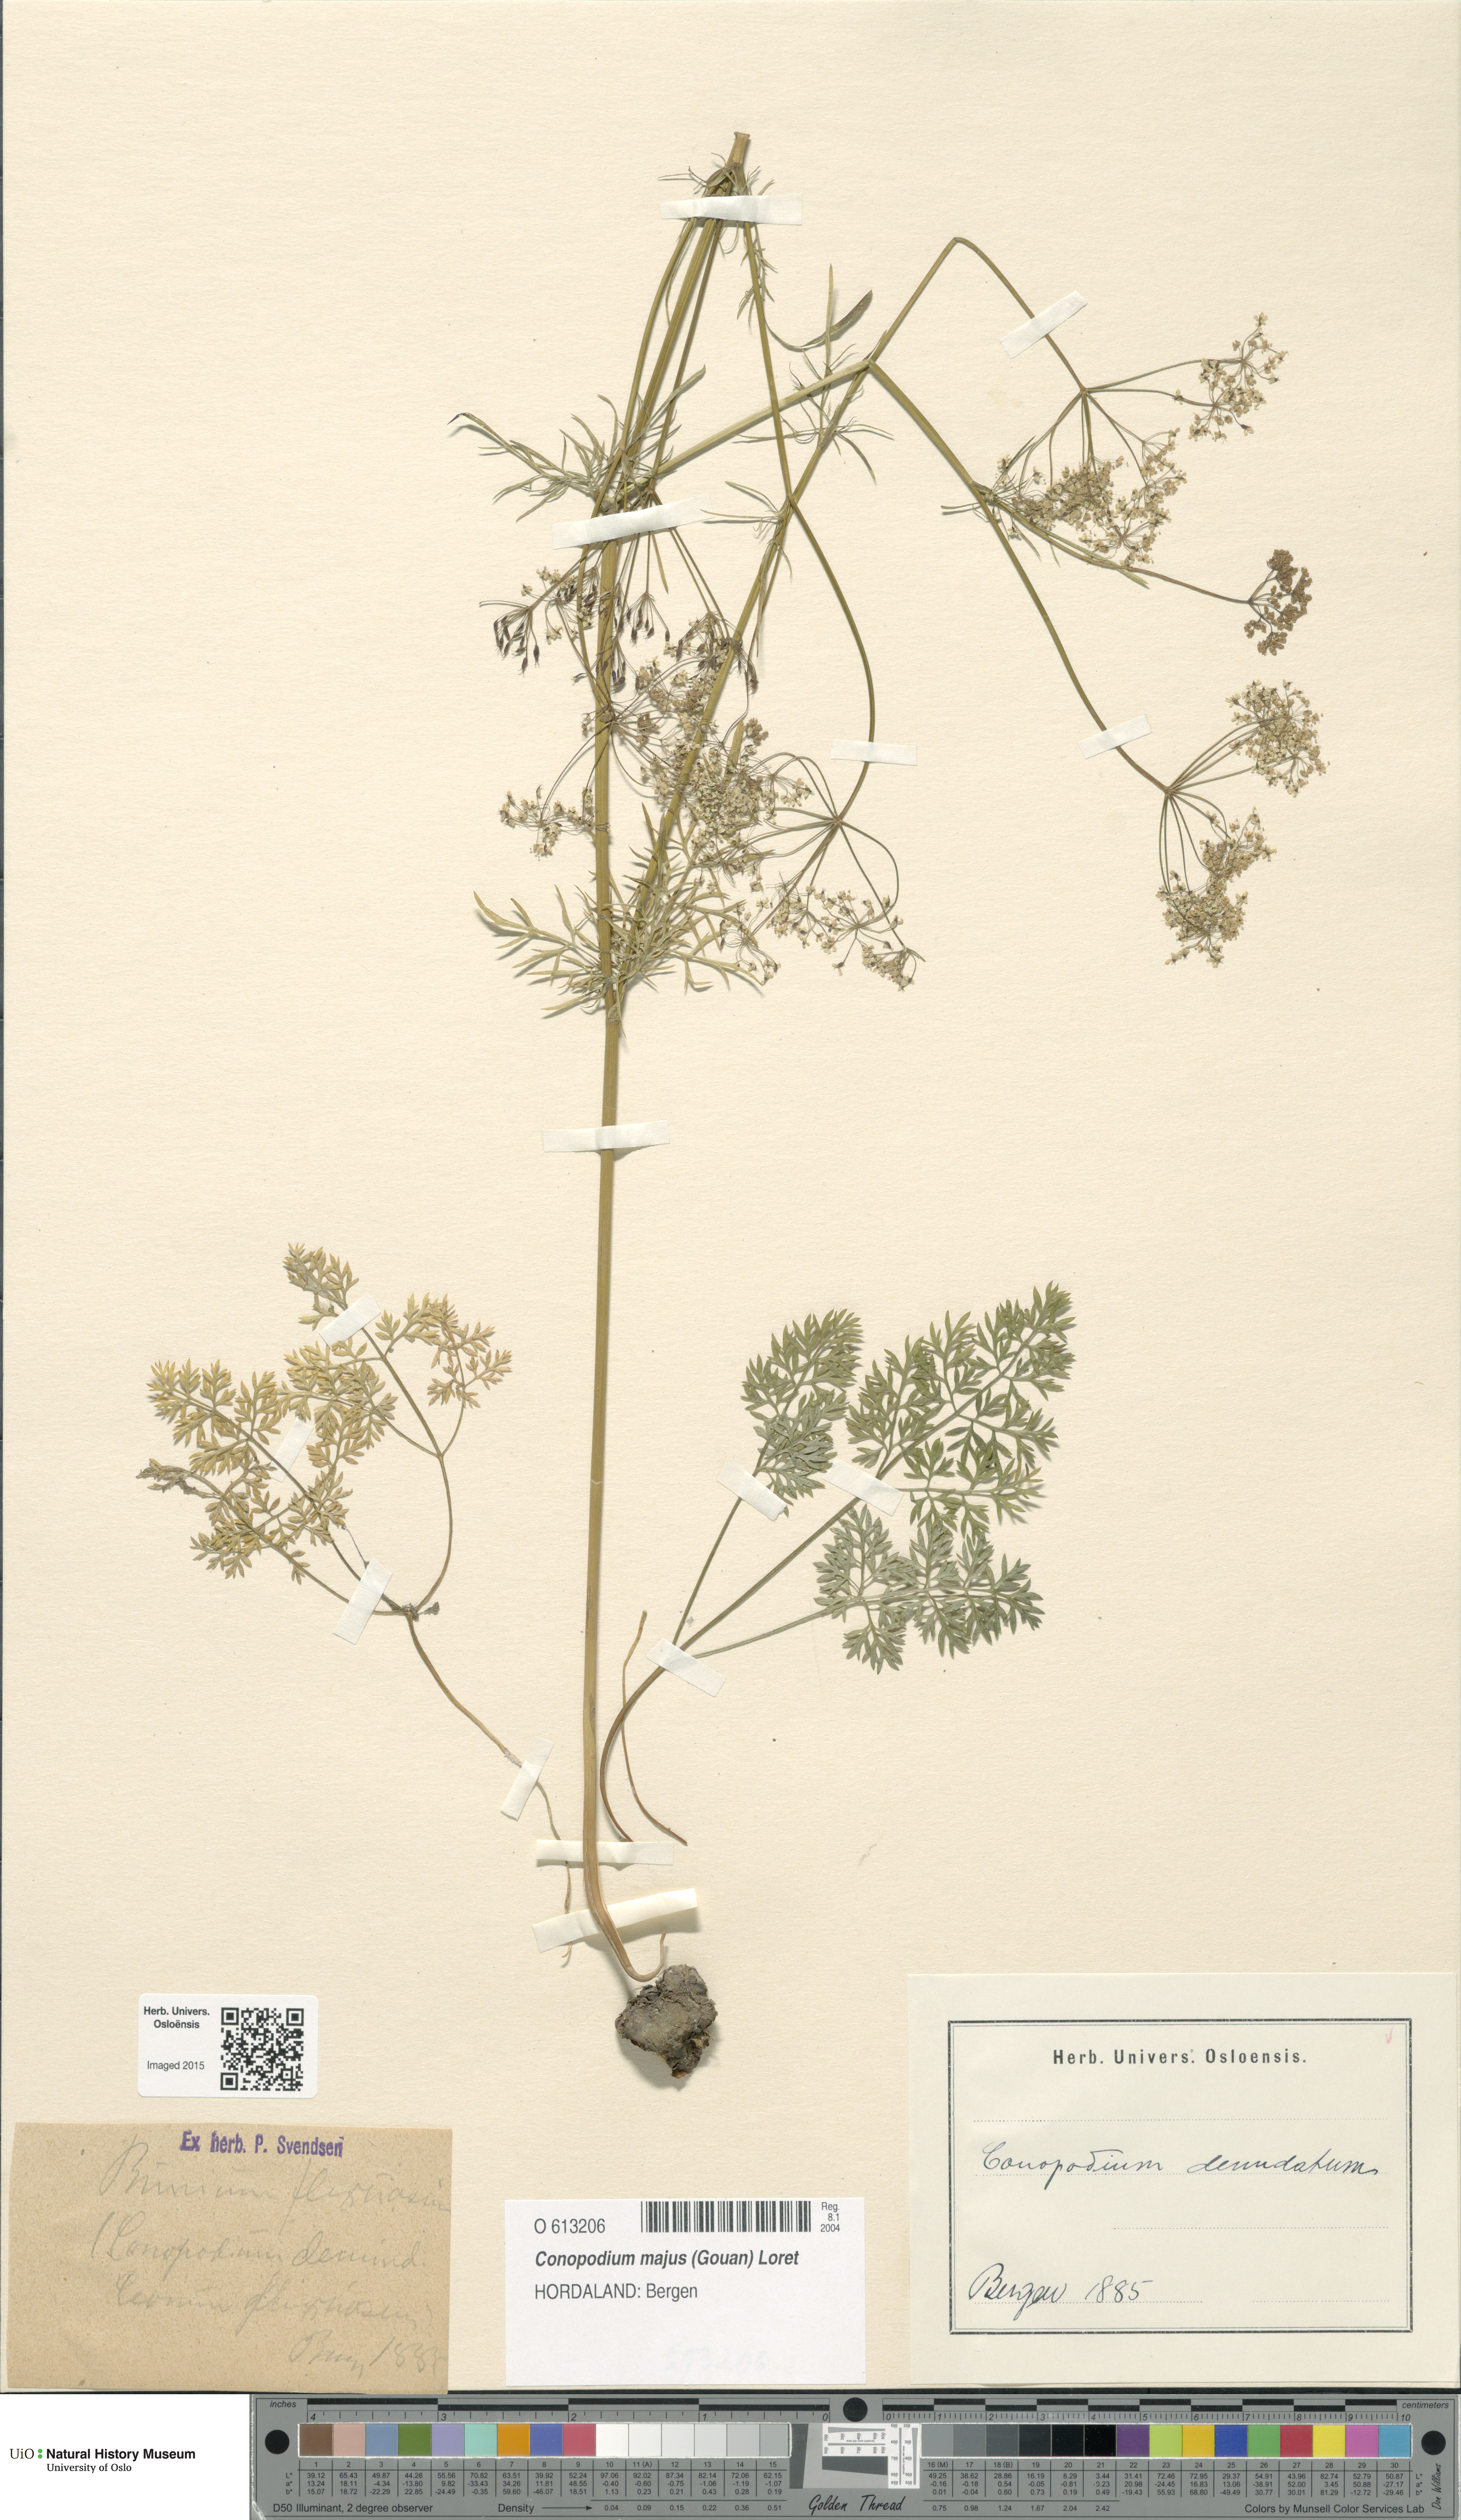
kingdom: Plantae
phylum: Tracheophyta
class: Magnoliopsida
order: Apiales
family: Apiaceae
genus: Conopodium
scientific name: Conopodium majus
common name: Pignut
